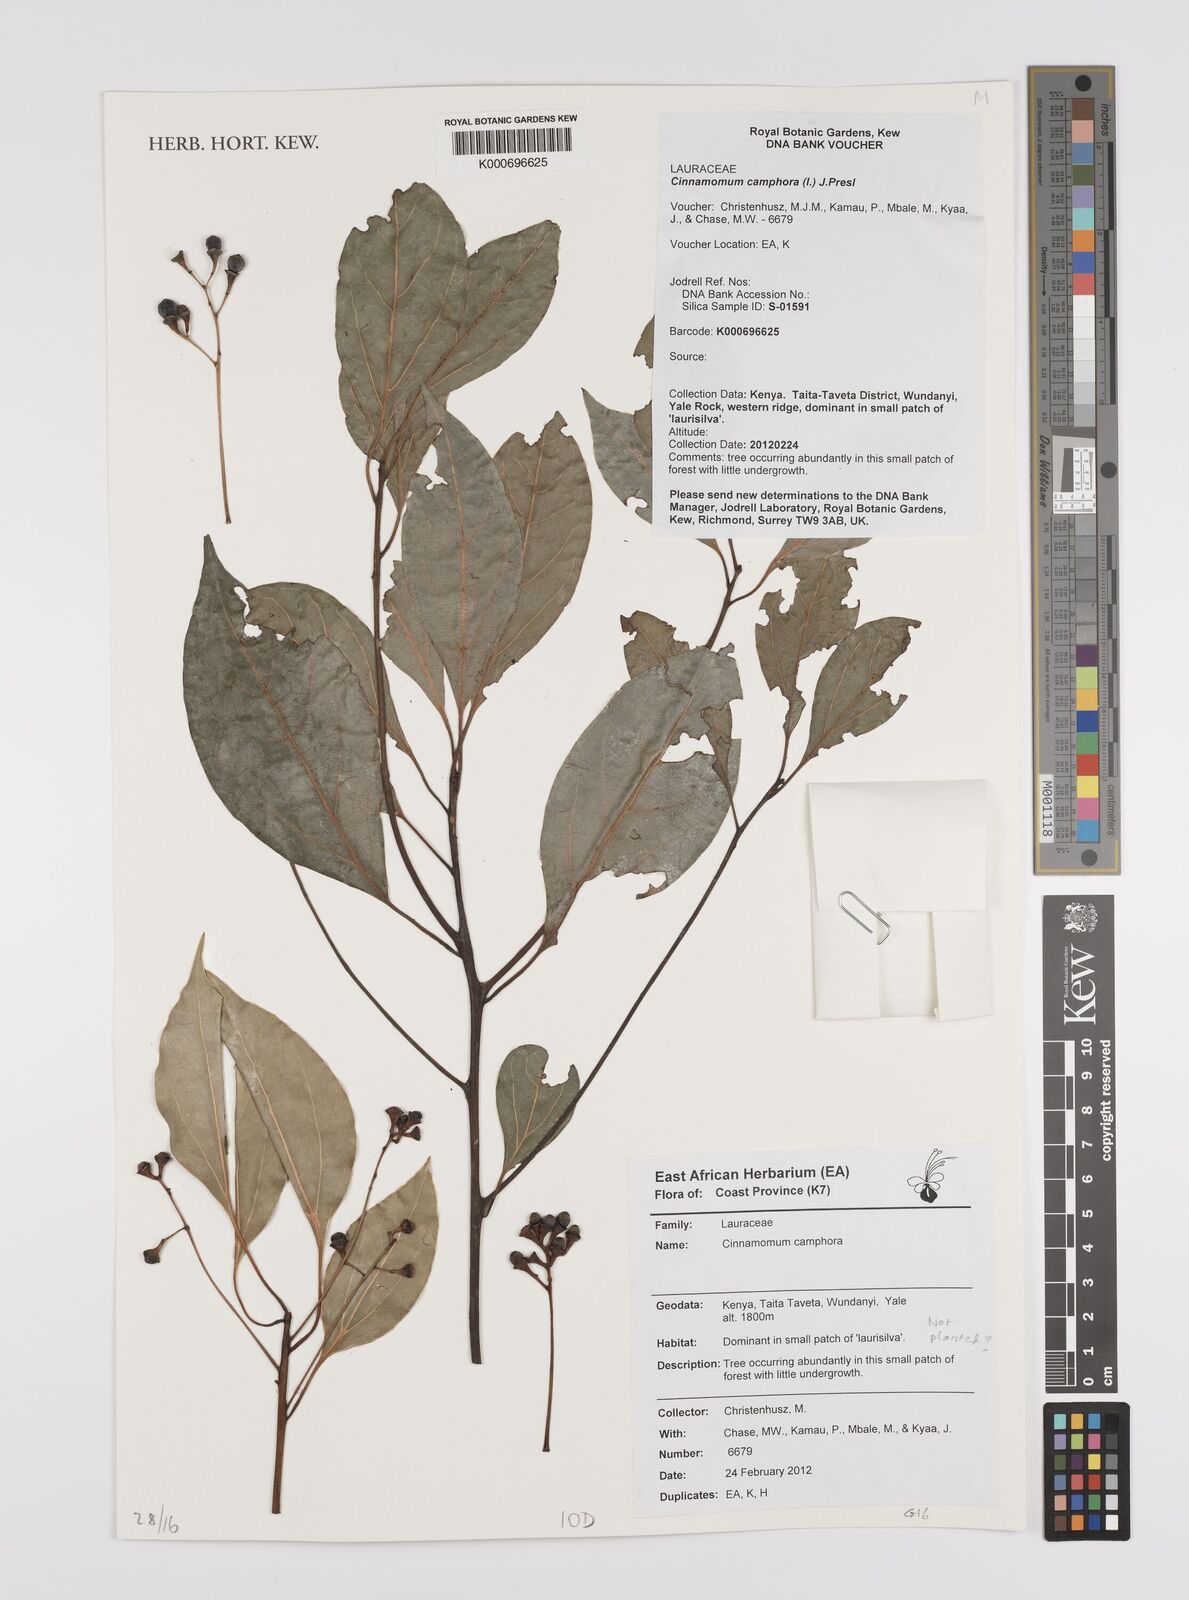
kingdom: Plantae
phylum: Tracheophyta
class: Magnoliopsida
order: Laurales
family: Lauraceae
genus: Cinnamomum
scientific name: Cinnamomum camphora
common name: Camphortree
